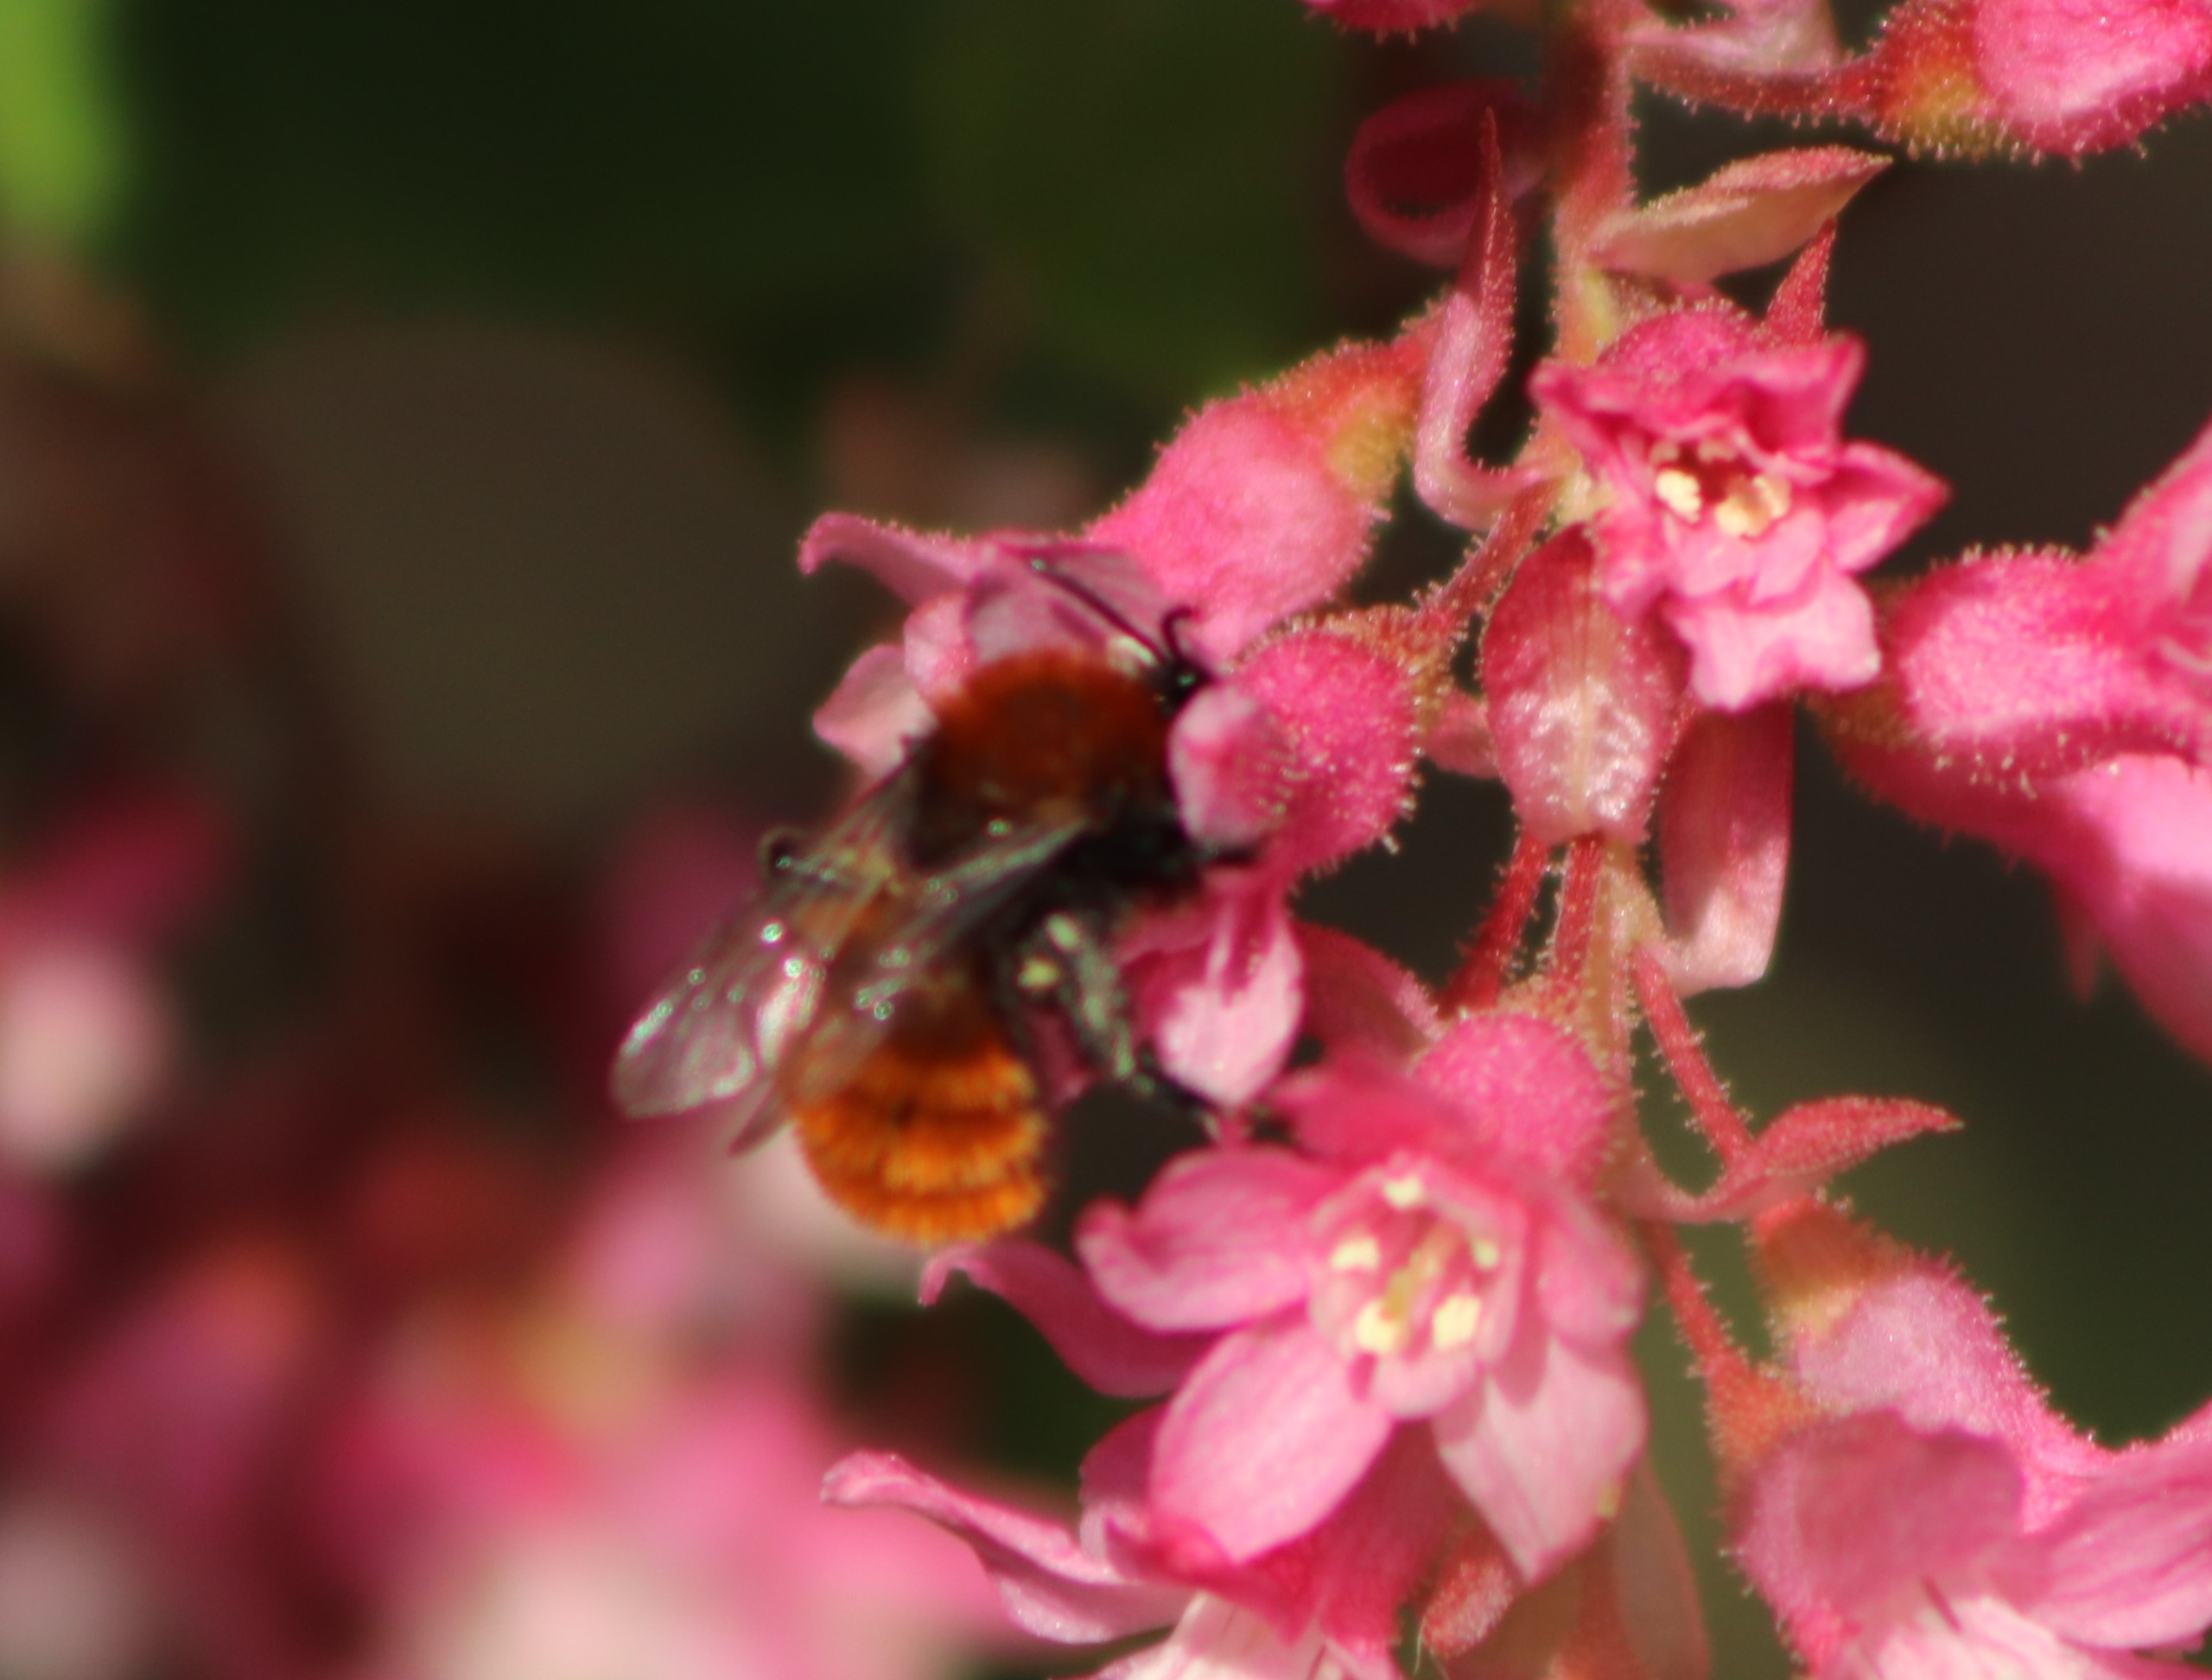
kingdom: Animalia
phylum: Arthropoda
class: Insecta
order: Hymenoptera
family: Andrenidae
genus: Andrena
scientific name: Andrena fulva
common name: Rødpelset jordbi
